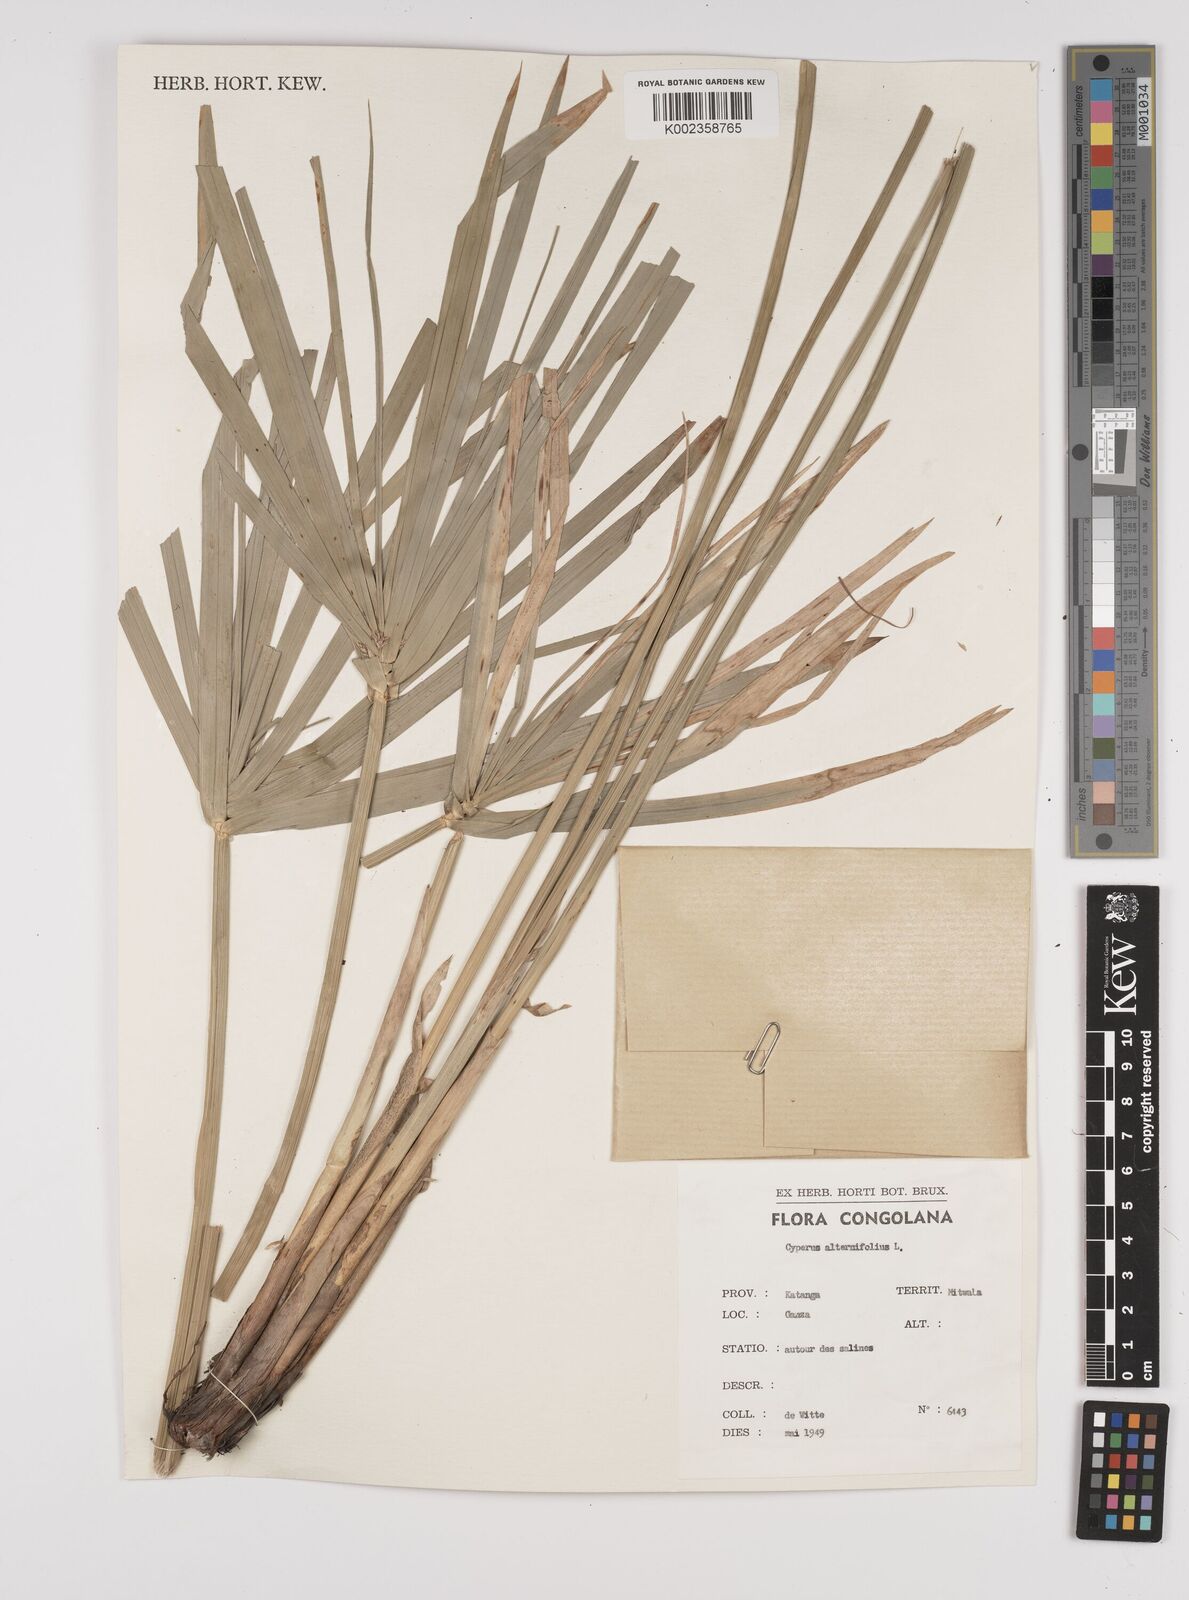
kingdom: Plantae
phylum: Tracheophyta
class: Liliopsida
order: Poales
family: Cyperaceae
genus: Cyperus
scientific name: Cyperus alternifolius
